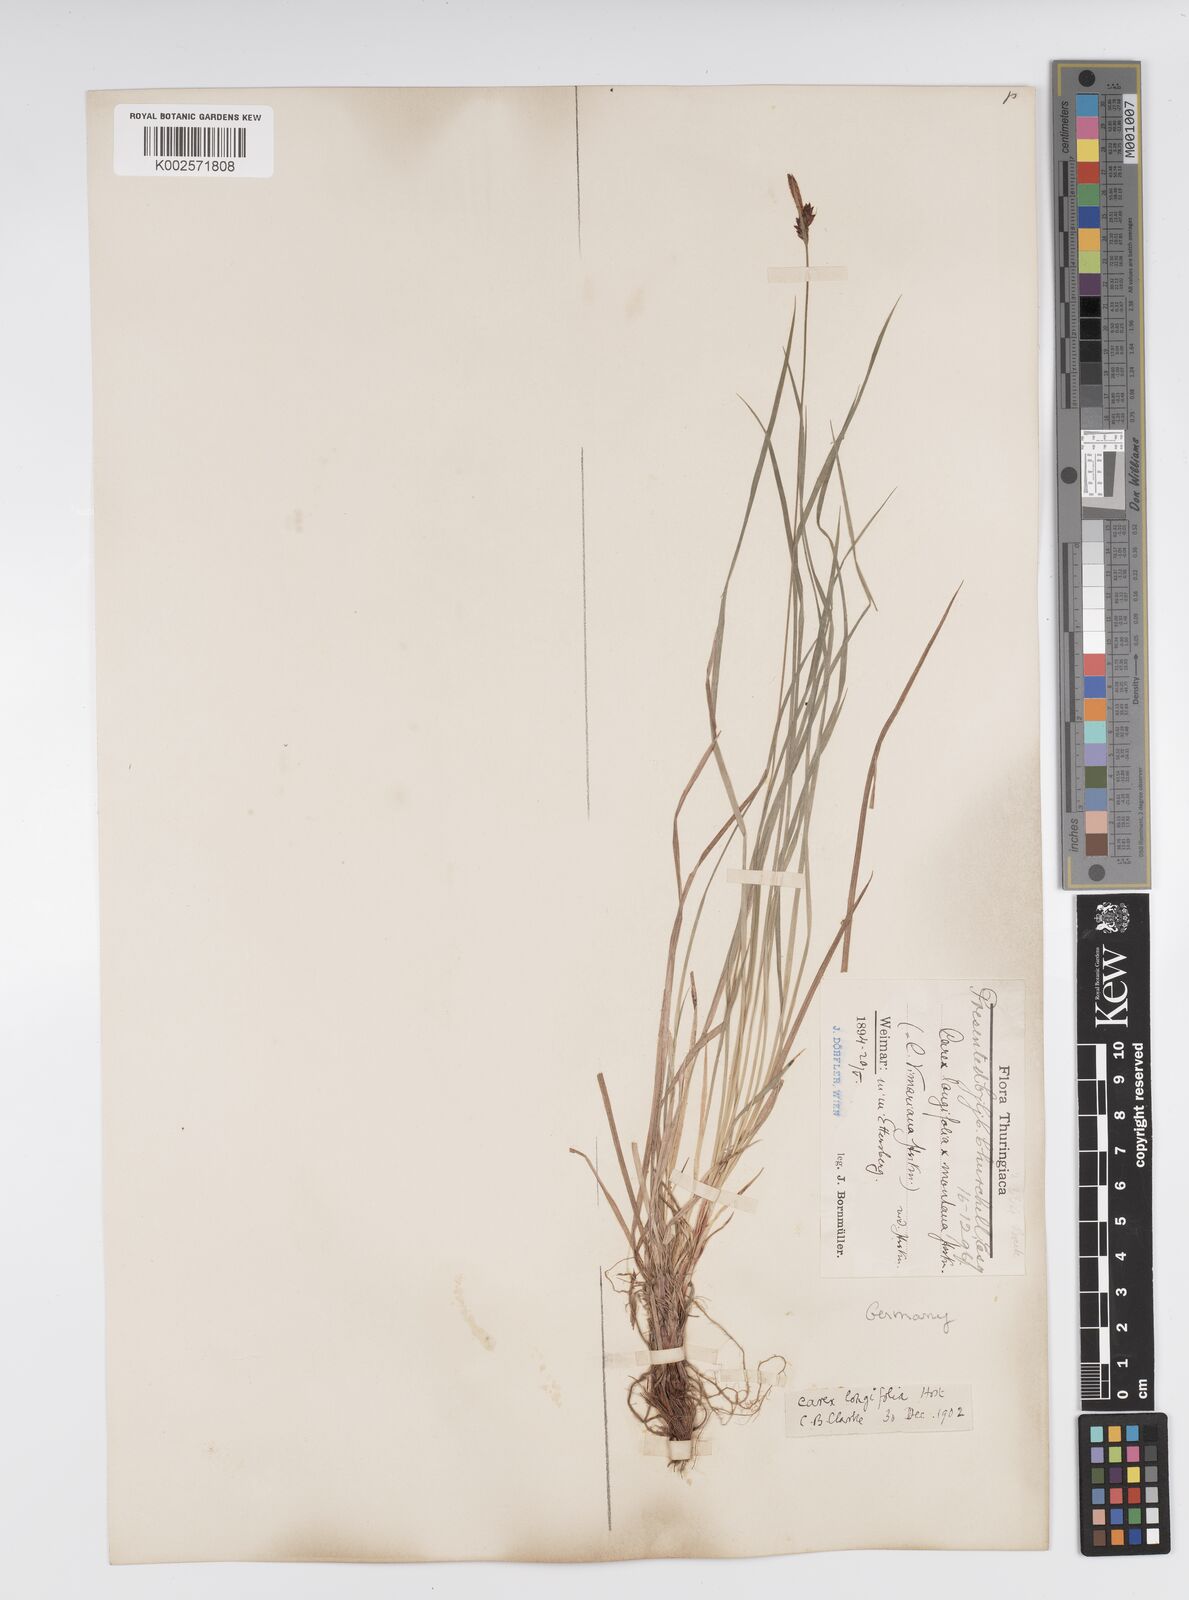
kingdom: Plantae
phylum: Tracheophyta
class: Liliopsida
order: Poales
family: Cyperaceae
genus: Carex
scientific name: Carex umbrosa
